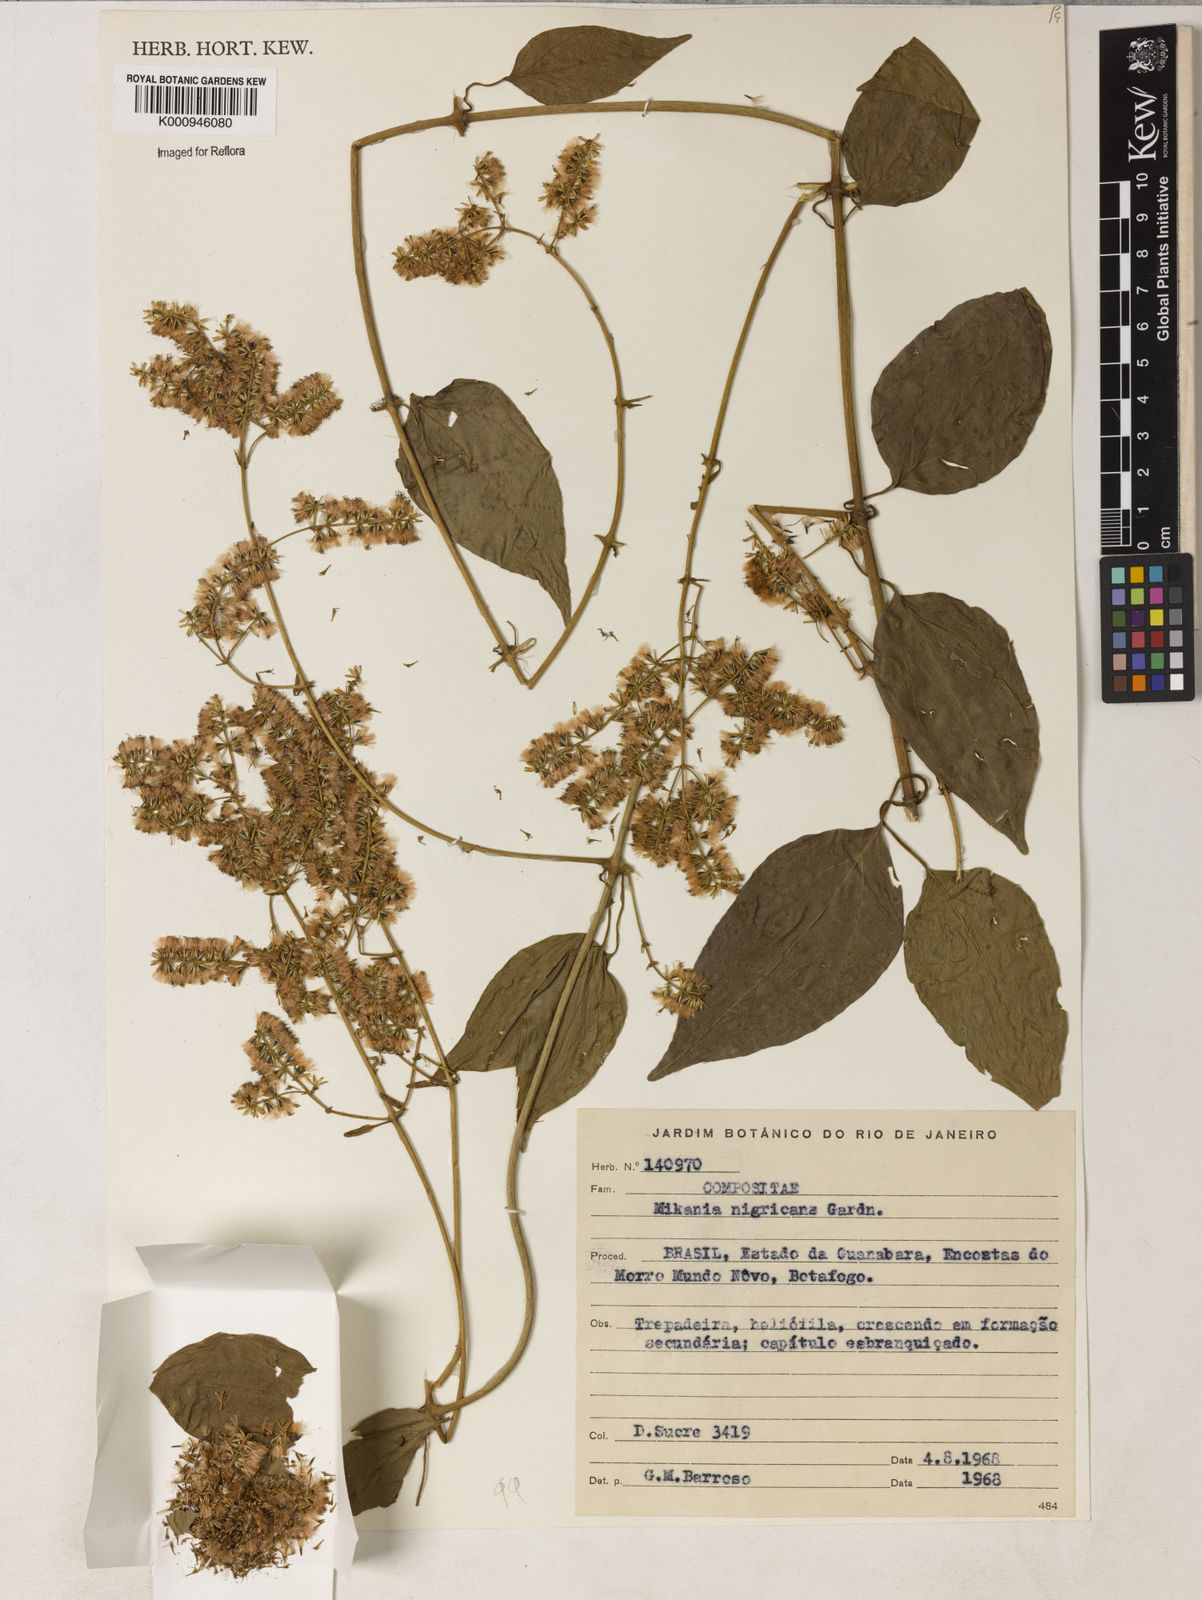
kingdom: Plantae
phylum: Tracheophyta
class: Magnoliopsida
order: Asterales
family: Asteraceae
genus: Mikania
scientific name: Mikania nigricans
